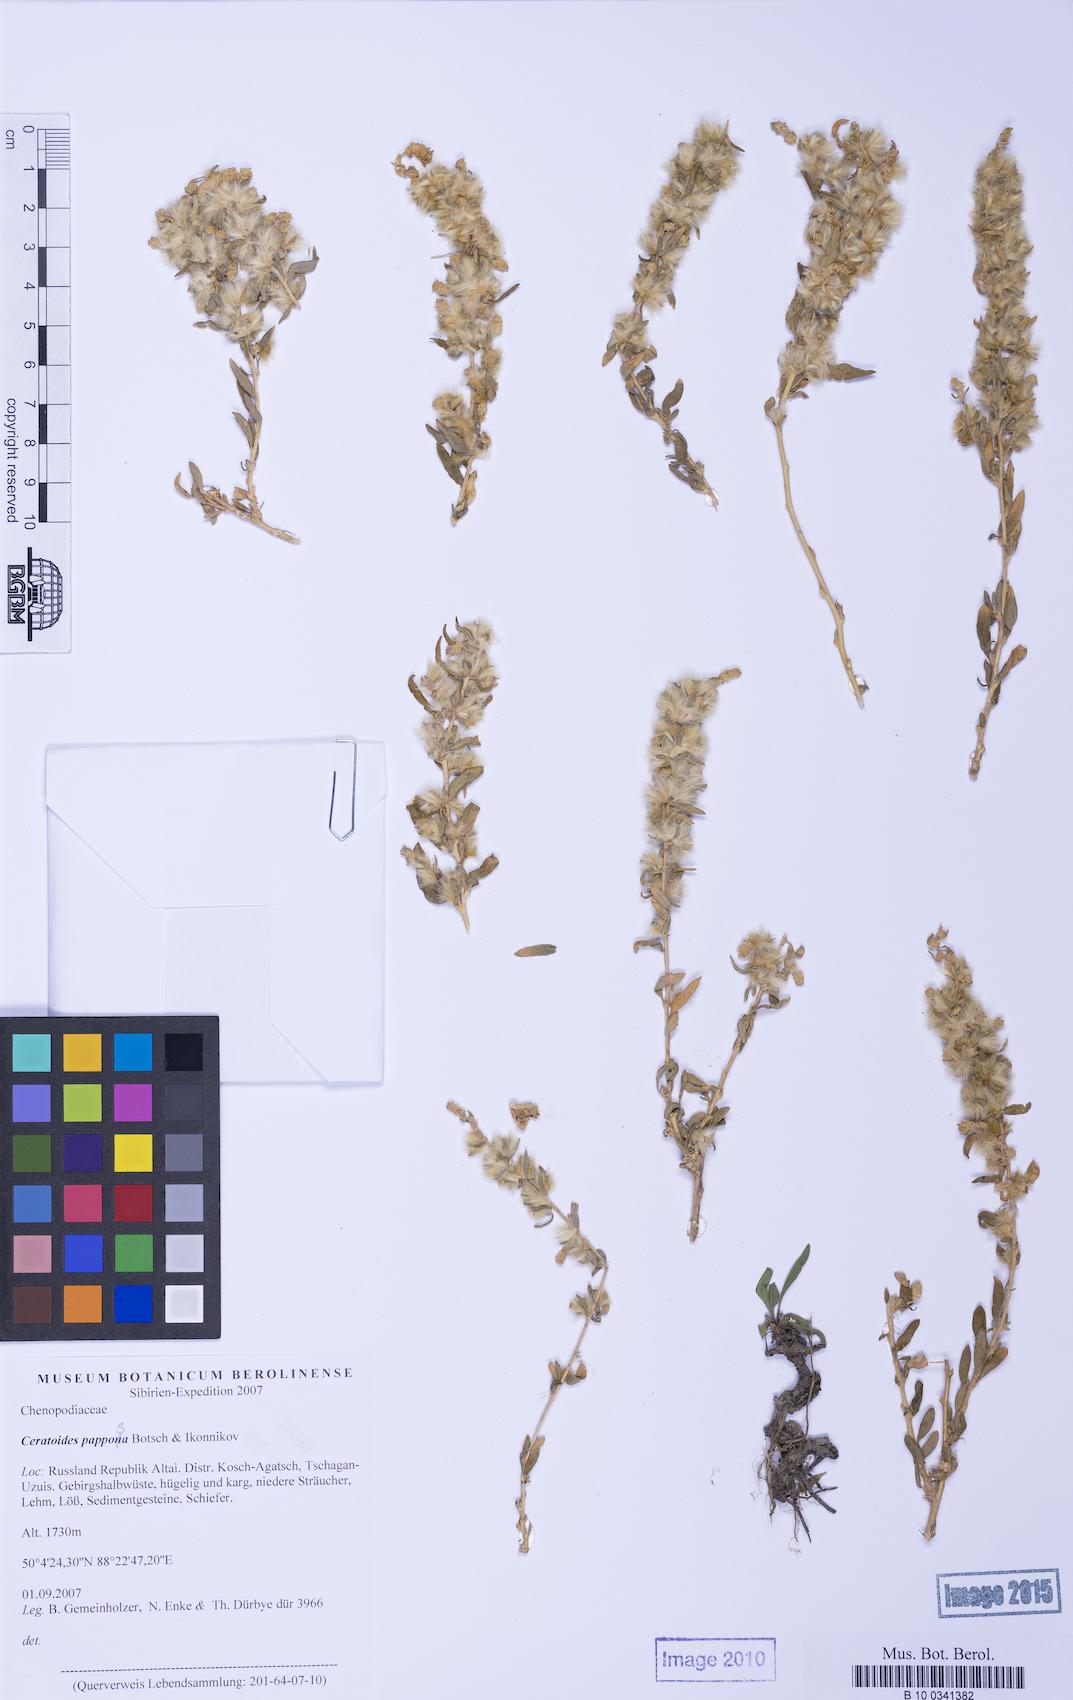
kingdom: Plantae
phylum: Tracheophyta
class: Magnoliopsida
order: Caryophyllales
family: Amaranthaceae
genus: Krascheninnikovia
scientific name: Krascheninnikovia ceratoides
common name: Pamirian winterfat
